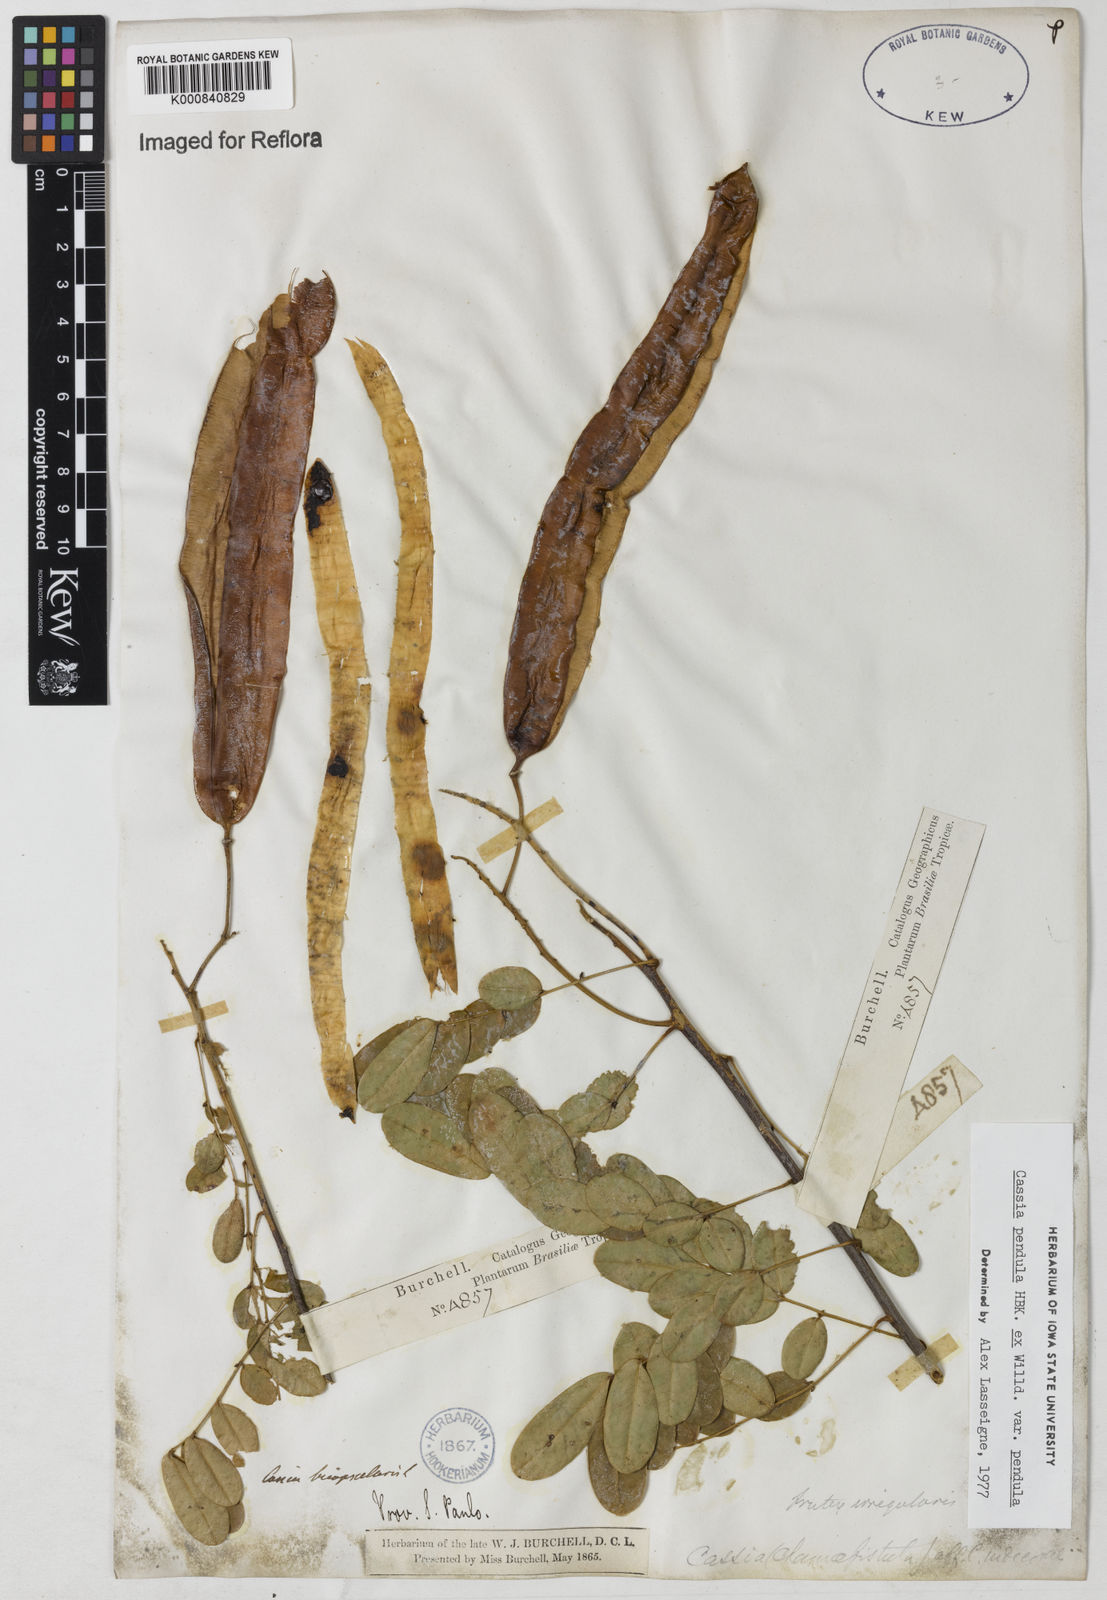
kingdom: Plantae
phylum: Tracheophyta
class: Magnoliopsida
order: Fabales
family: Fabaceae
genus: Senna
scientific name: Senna pendula
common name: Easter cassia
